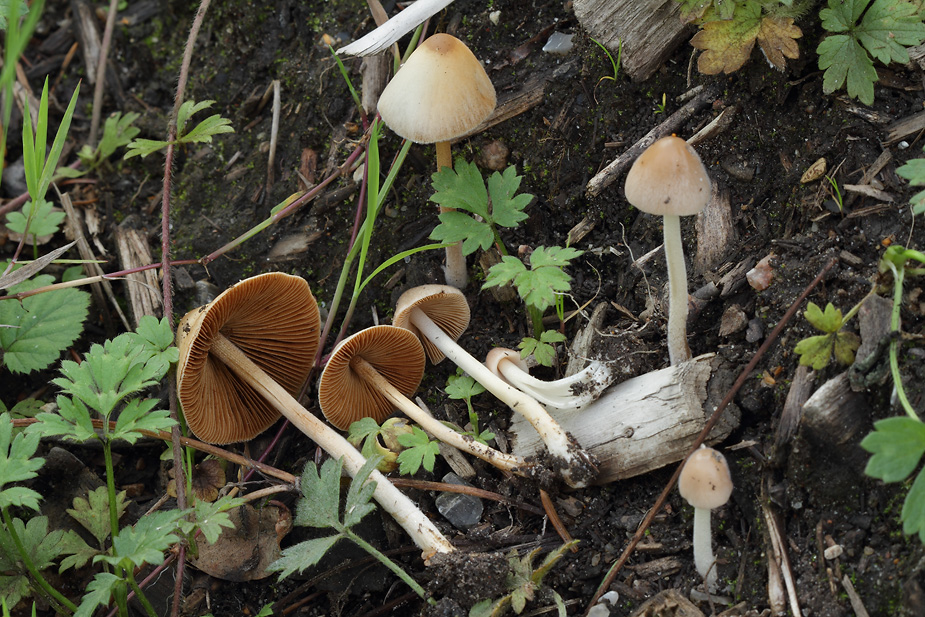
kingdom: Fungi
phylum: Basidiomycota
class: Agaricomycetes
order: Agaricales
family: Bolbitiaceae
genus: Conocybe
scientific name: Conocybe apala
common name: køllestokket keglehat
